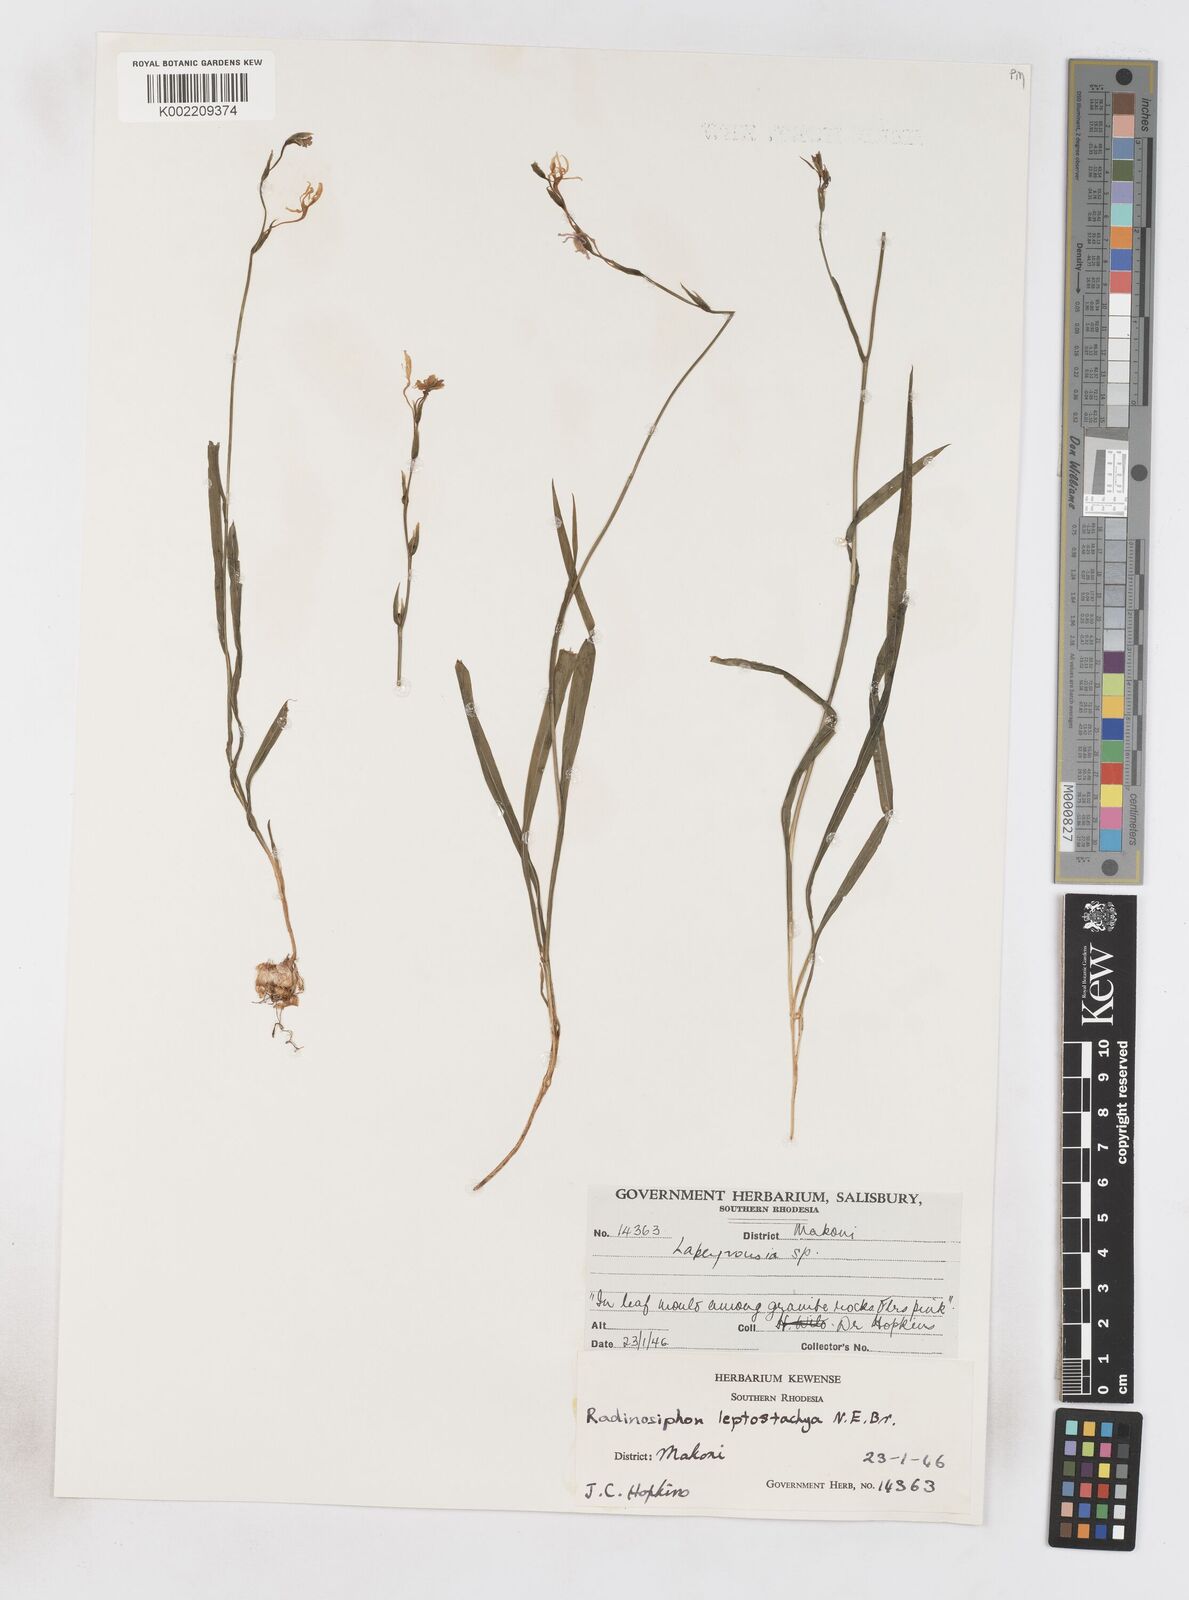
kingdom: Plantae
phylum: Tracheophyta
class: Liliopsida
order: Asparagales
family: Iridaceae
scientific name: Iridaceae
